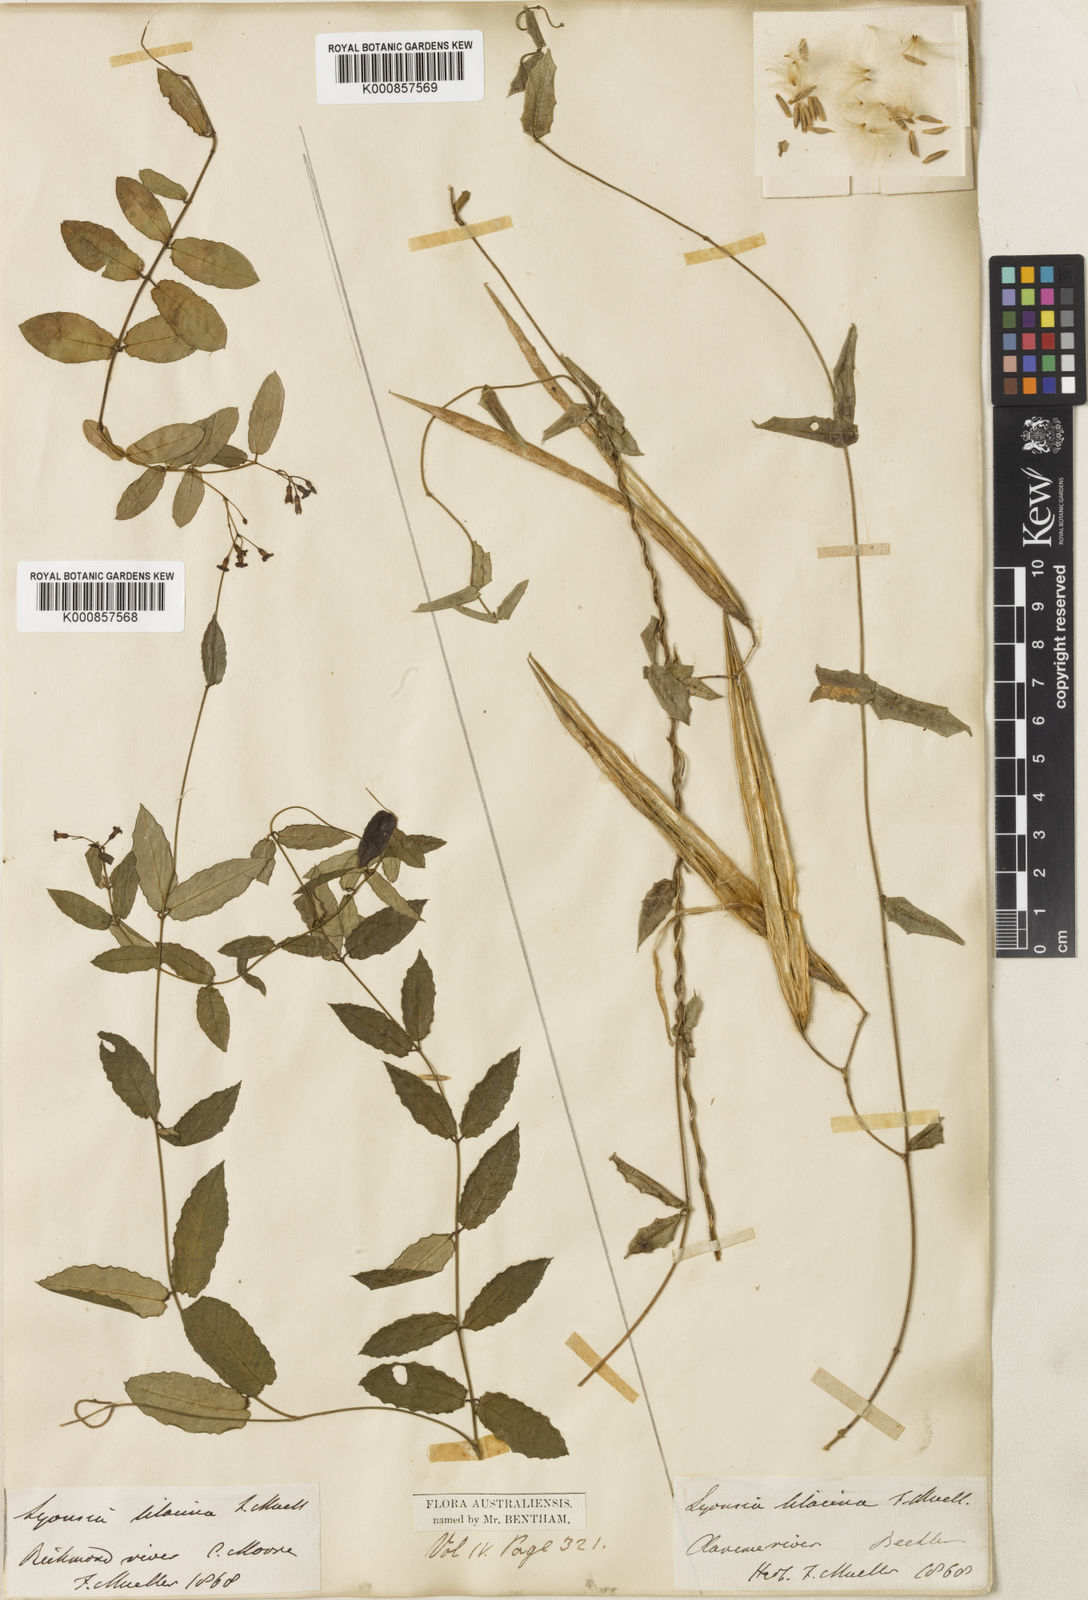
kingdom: Plantae
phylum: Tracheophyta
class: Magnoliopsida
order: Gentianales
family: Apocynaceae
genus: Parsonsia
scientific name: Parsonsia lilacina
